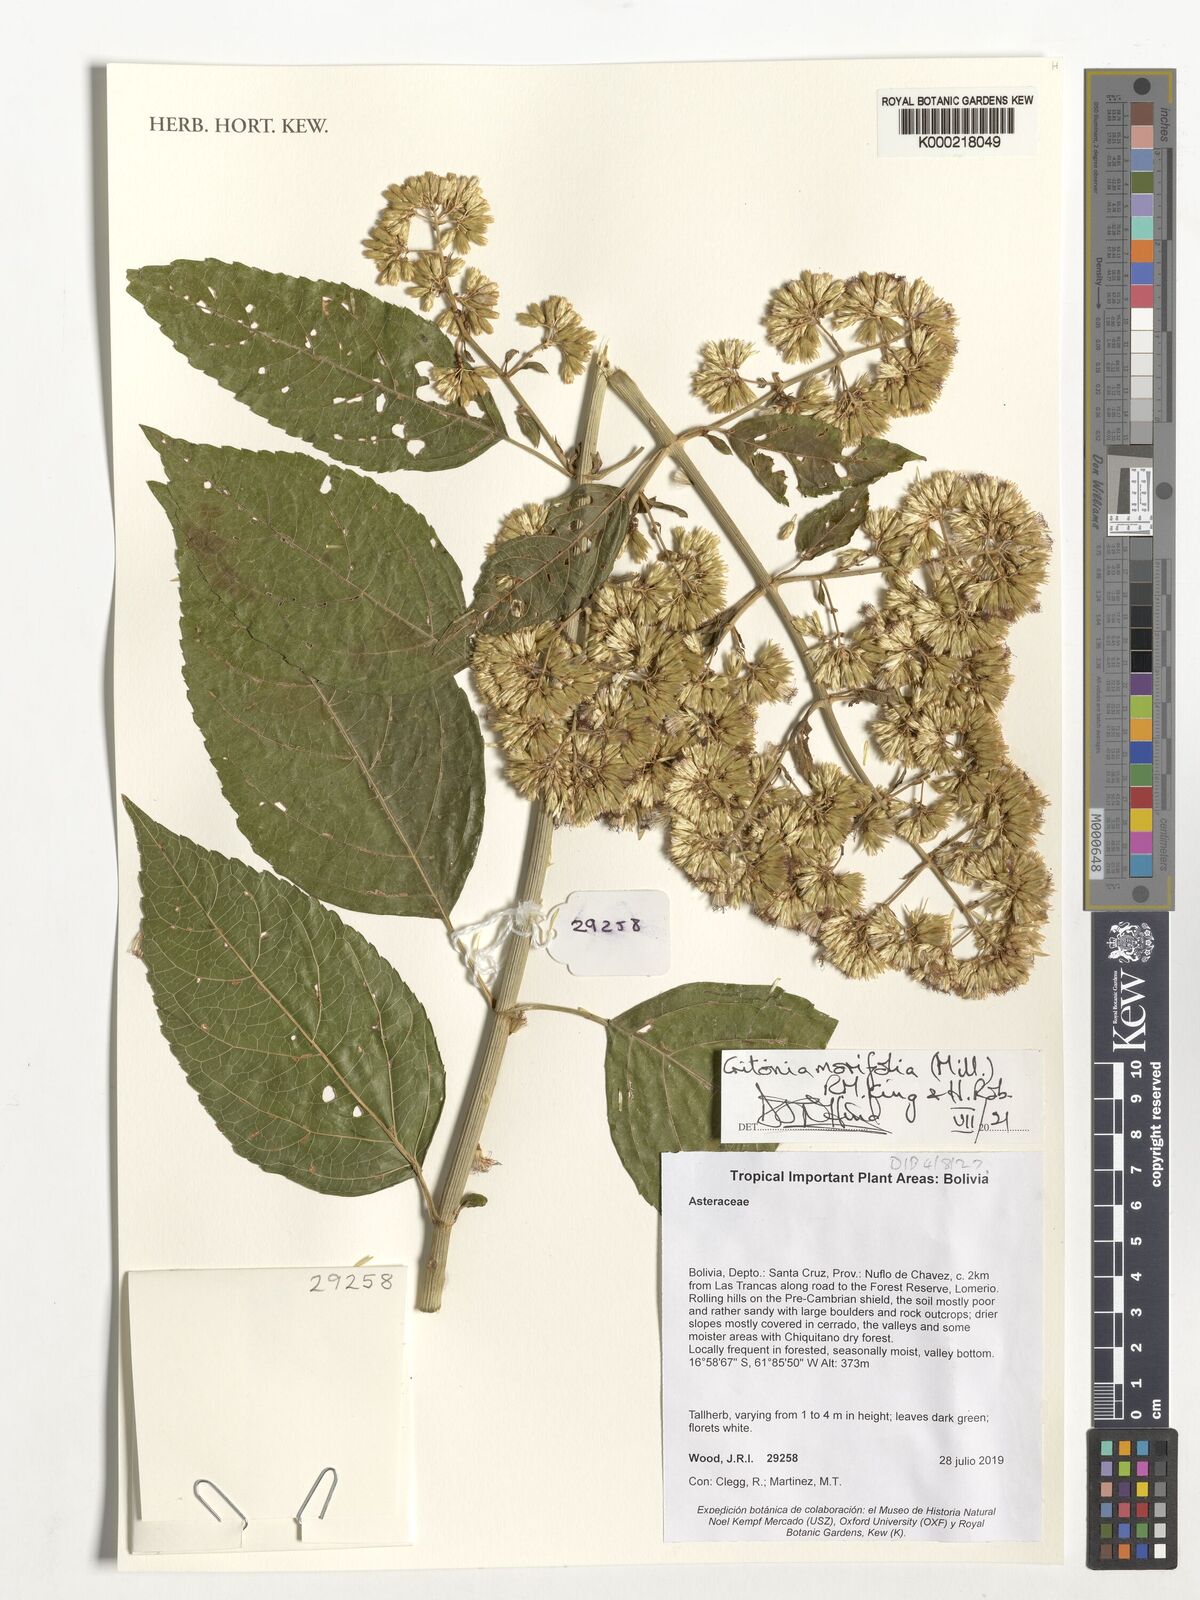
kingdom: Plantae
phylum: Tracheophyta
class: Magnoliopsida
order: Asterales
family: Asteraceae
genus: Critonia
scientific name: Critonia morifolia
